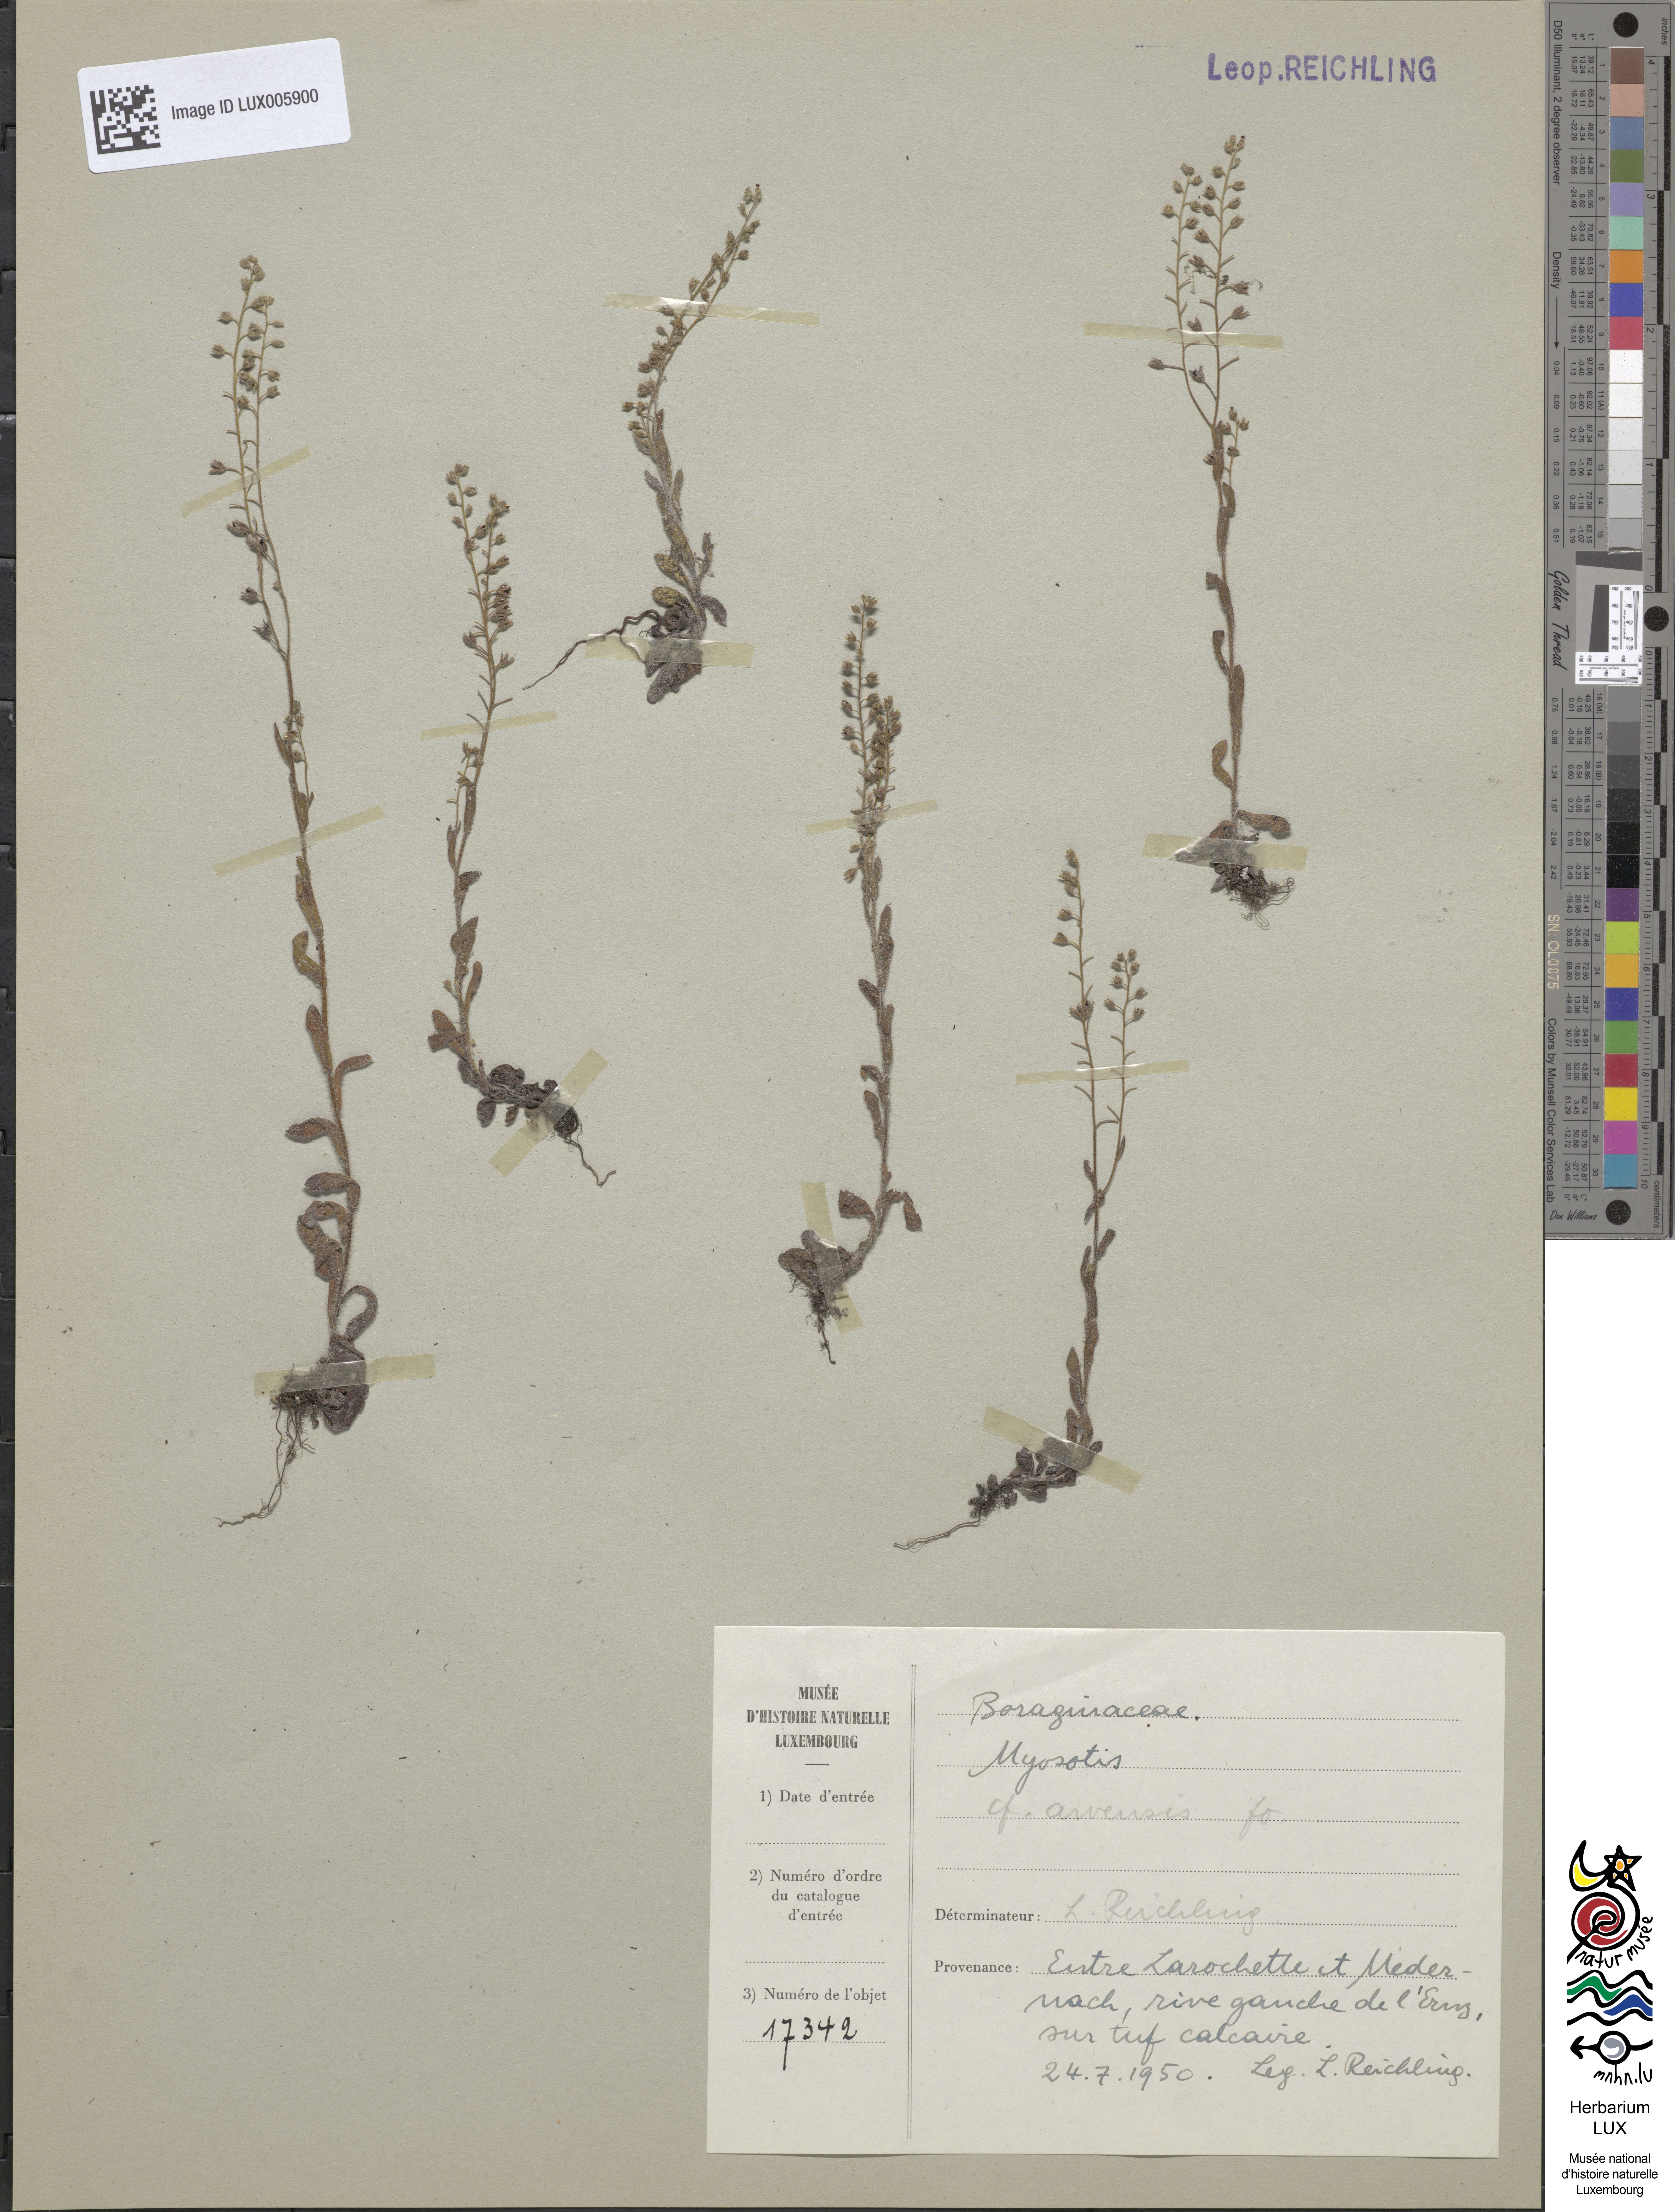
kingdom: Plantae
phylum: Tracheophyta
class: Magnoliopsida
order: Boraginales
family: Boraginaceae
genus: Myosotis
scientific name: Myosotis arvensis
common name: Field forget-me-not
